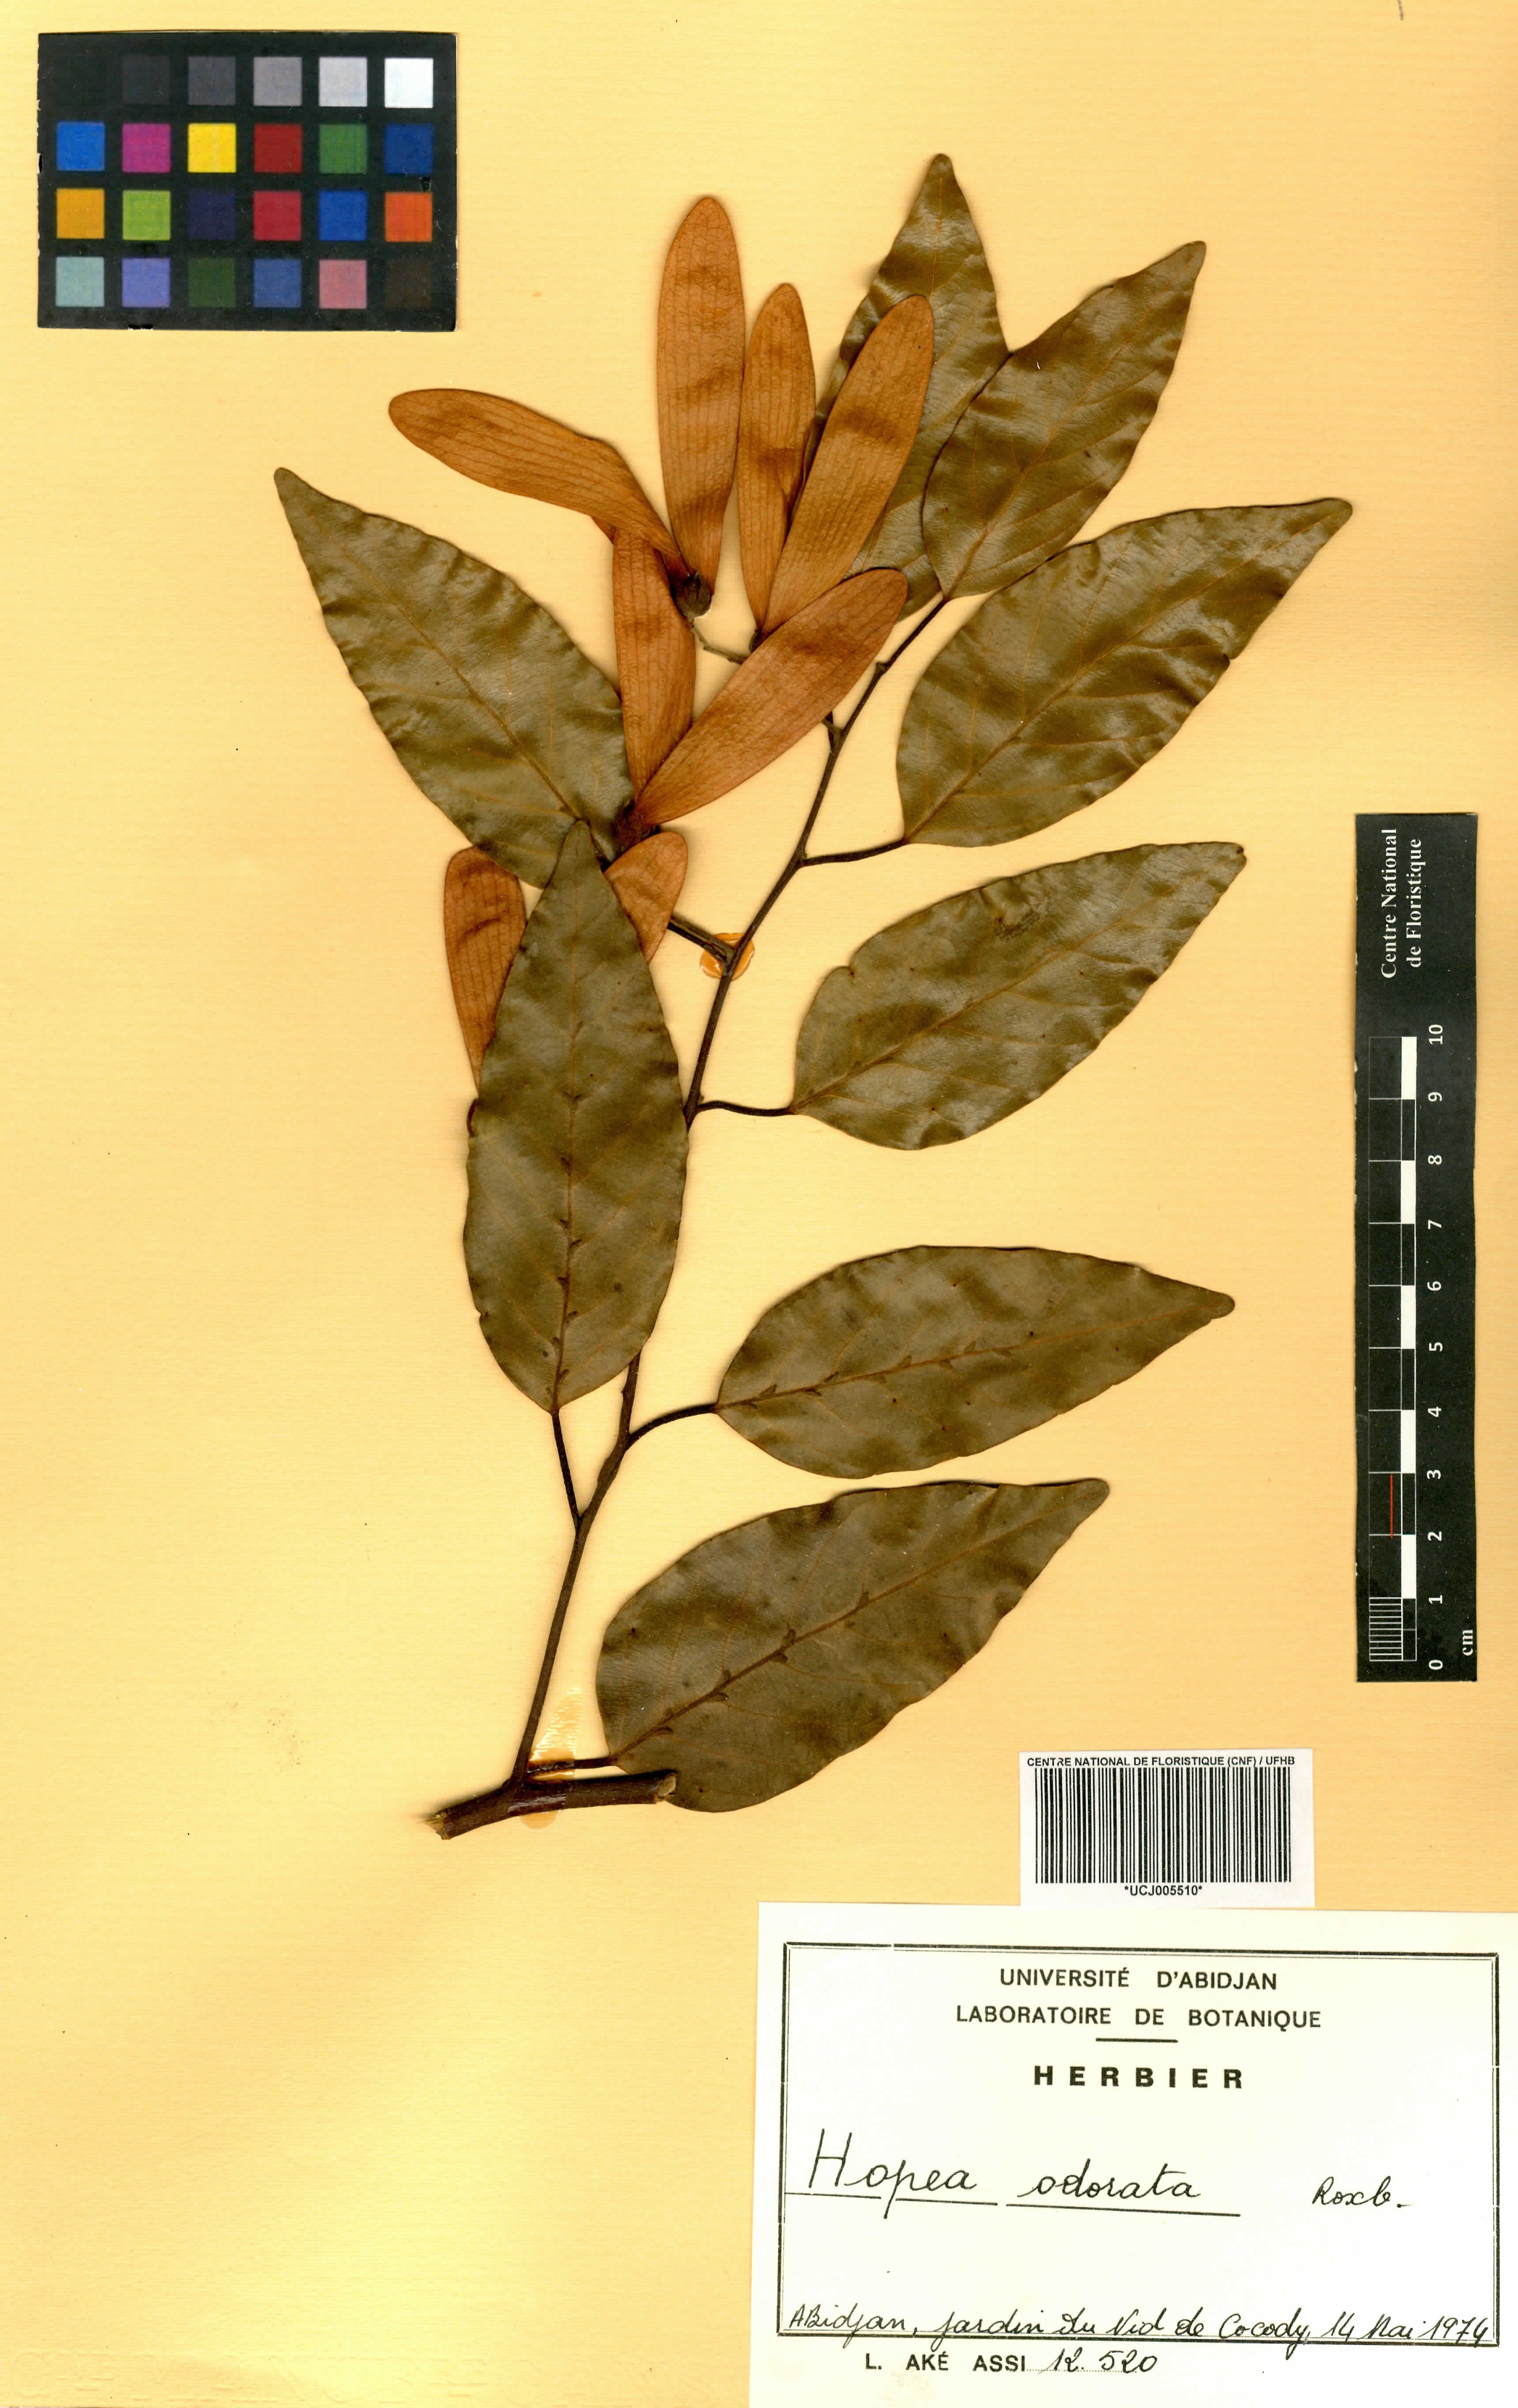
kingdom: Plantae
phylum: Tracheophyta
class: Magnoliopsida
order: Malvales
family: Dipterocarpaceae
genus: Hopea
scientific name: Hopea odorata
